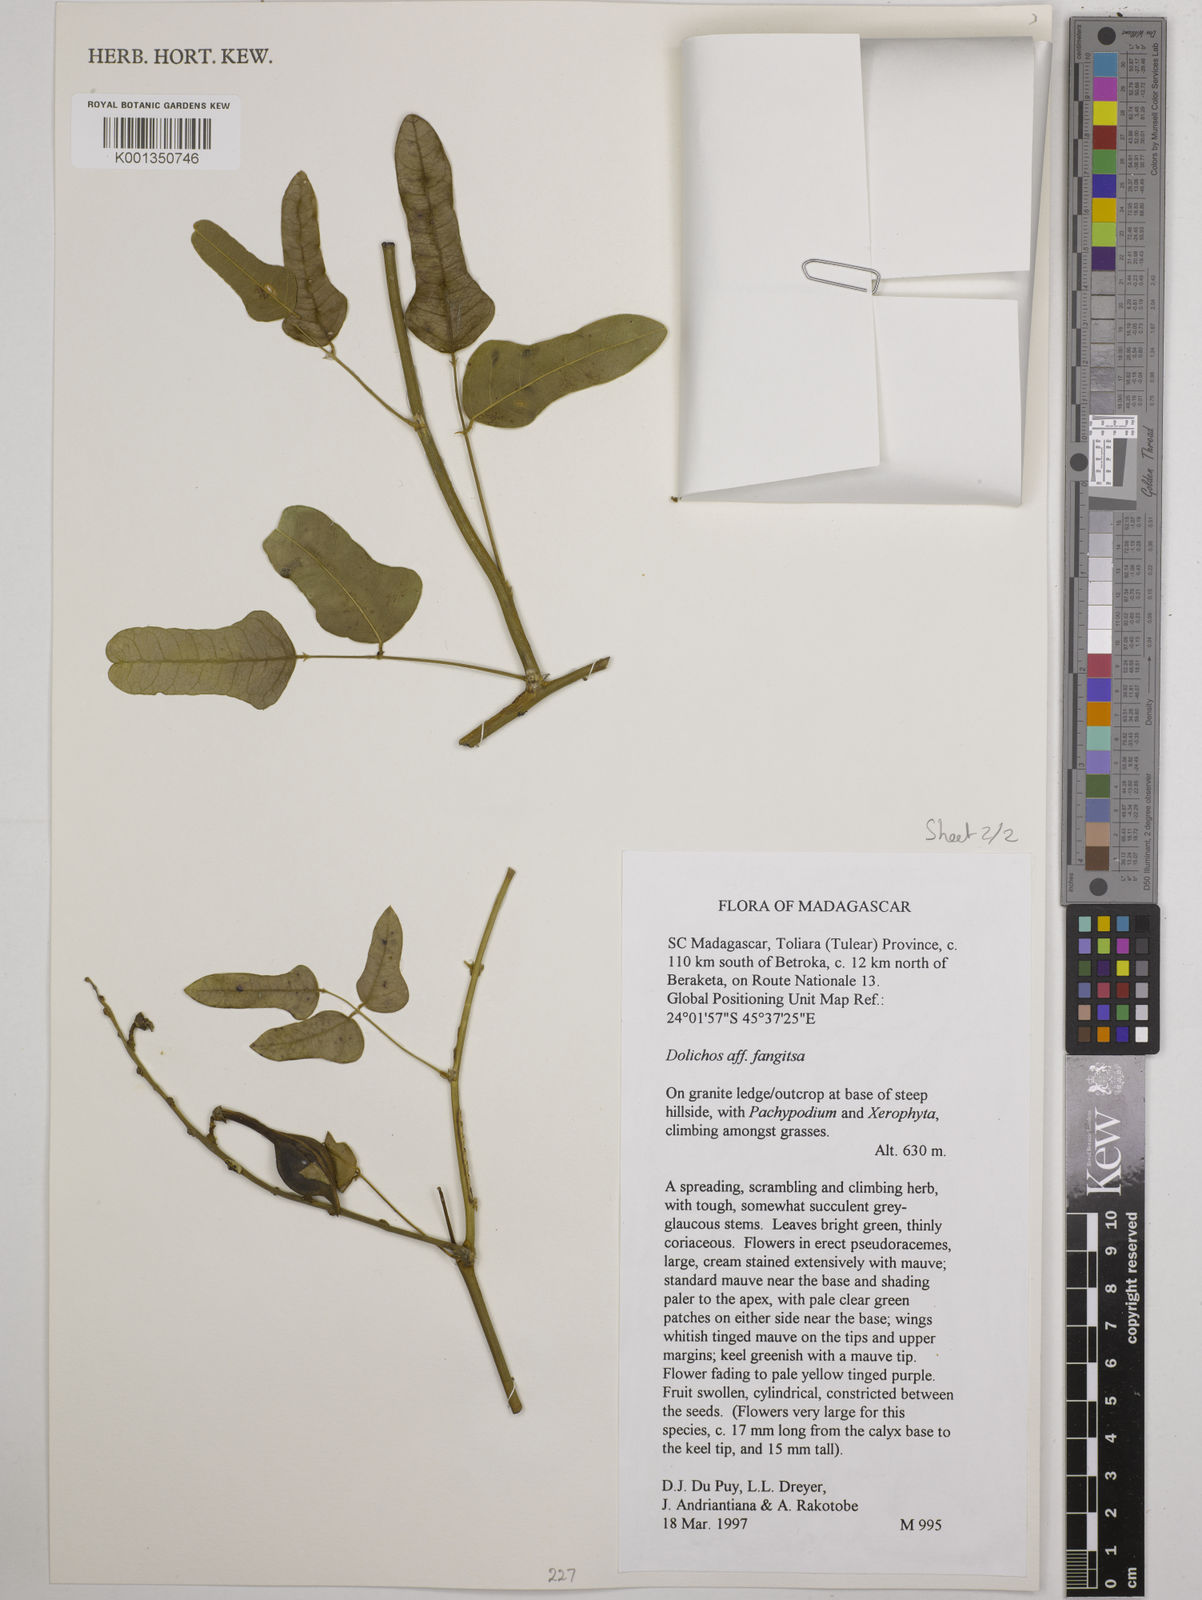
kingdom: Plantae
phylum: Tracheophyta
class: Magnoliopsida
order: Fabales
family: Fabaceae
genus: Dolichos
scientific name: Dolichos fangitsa
